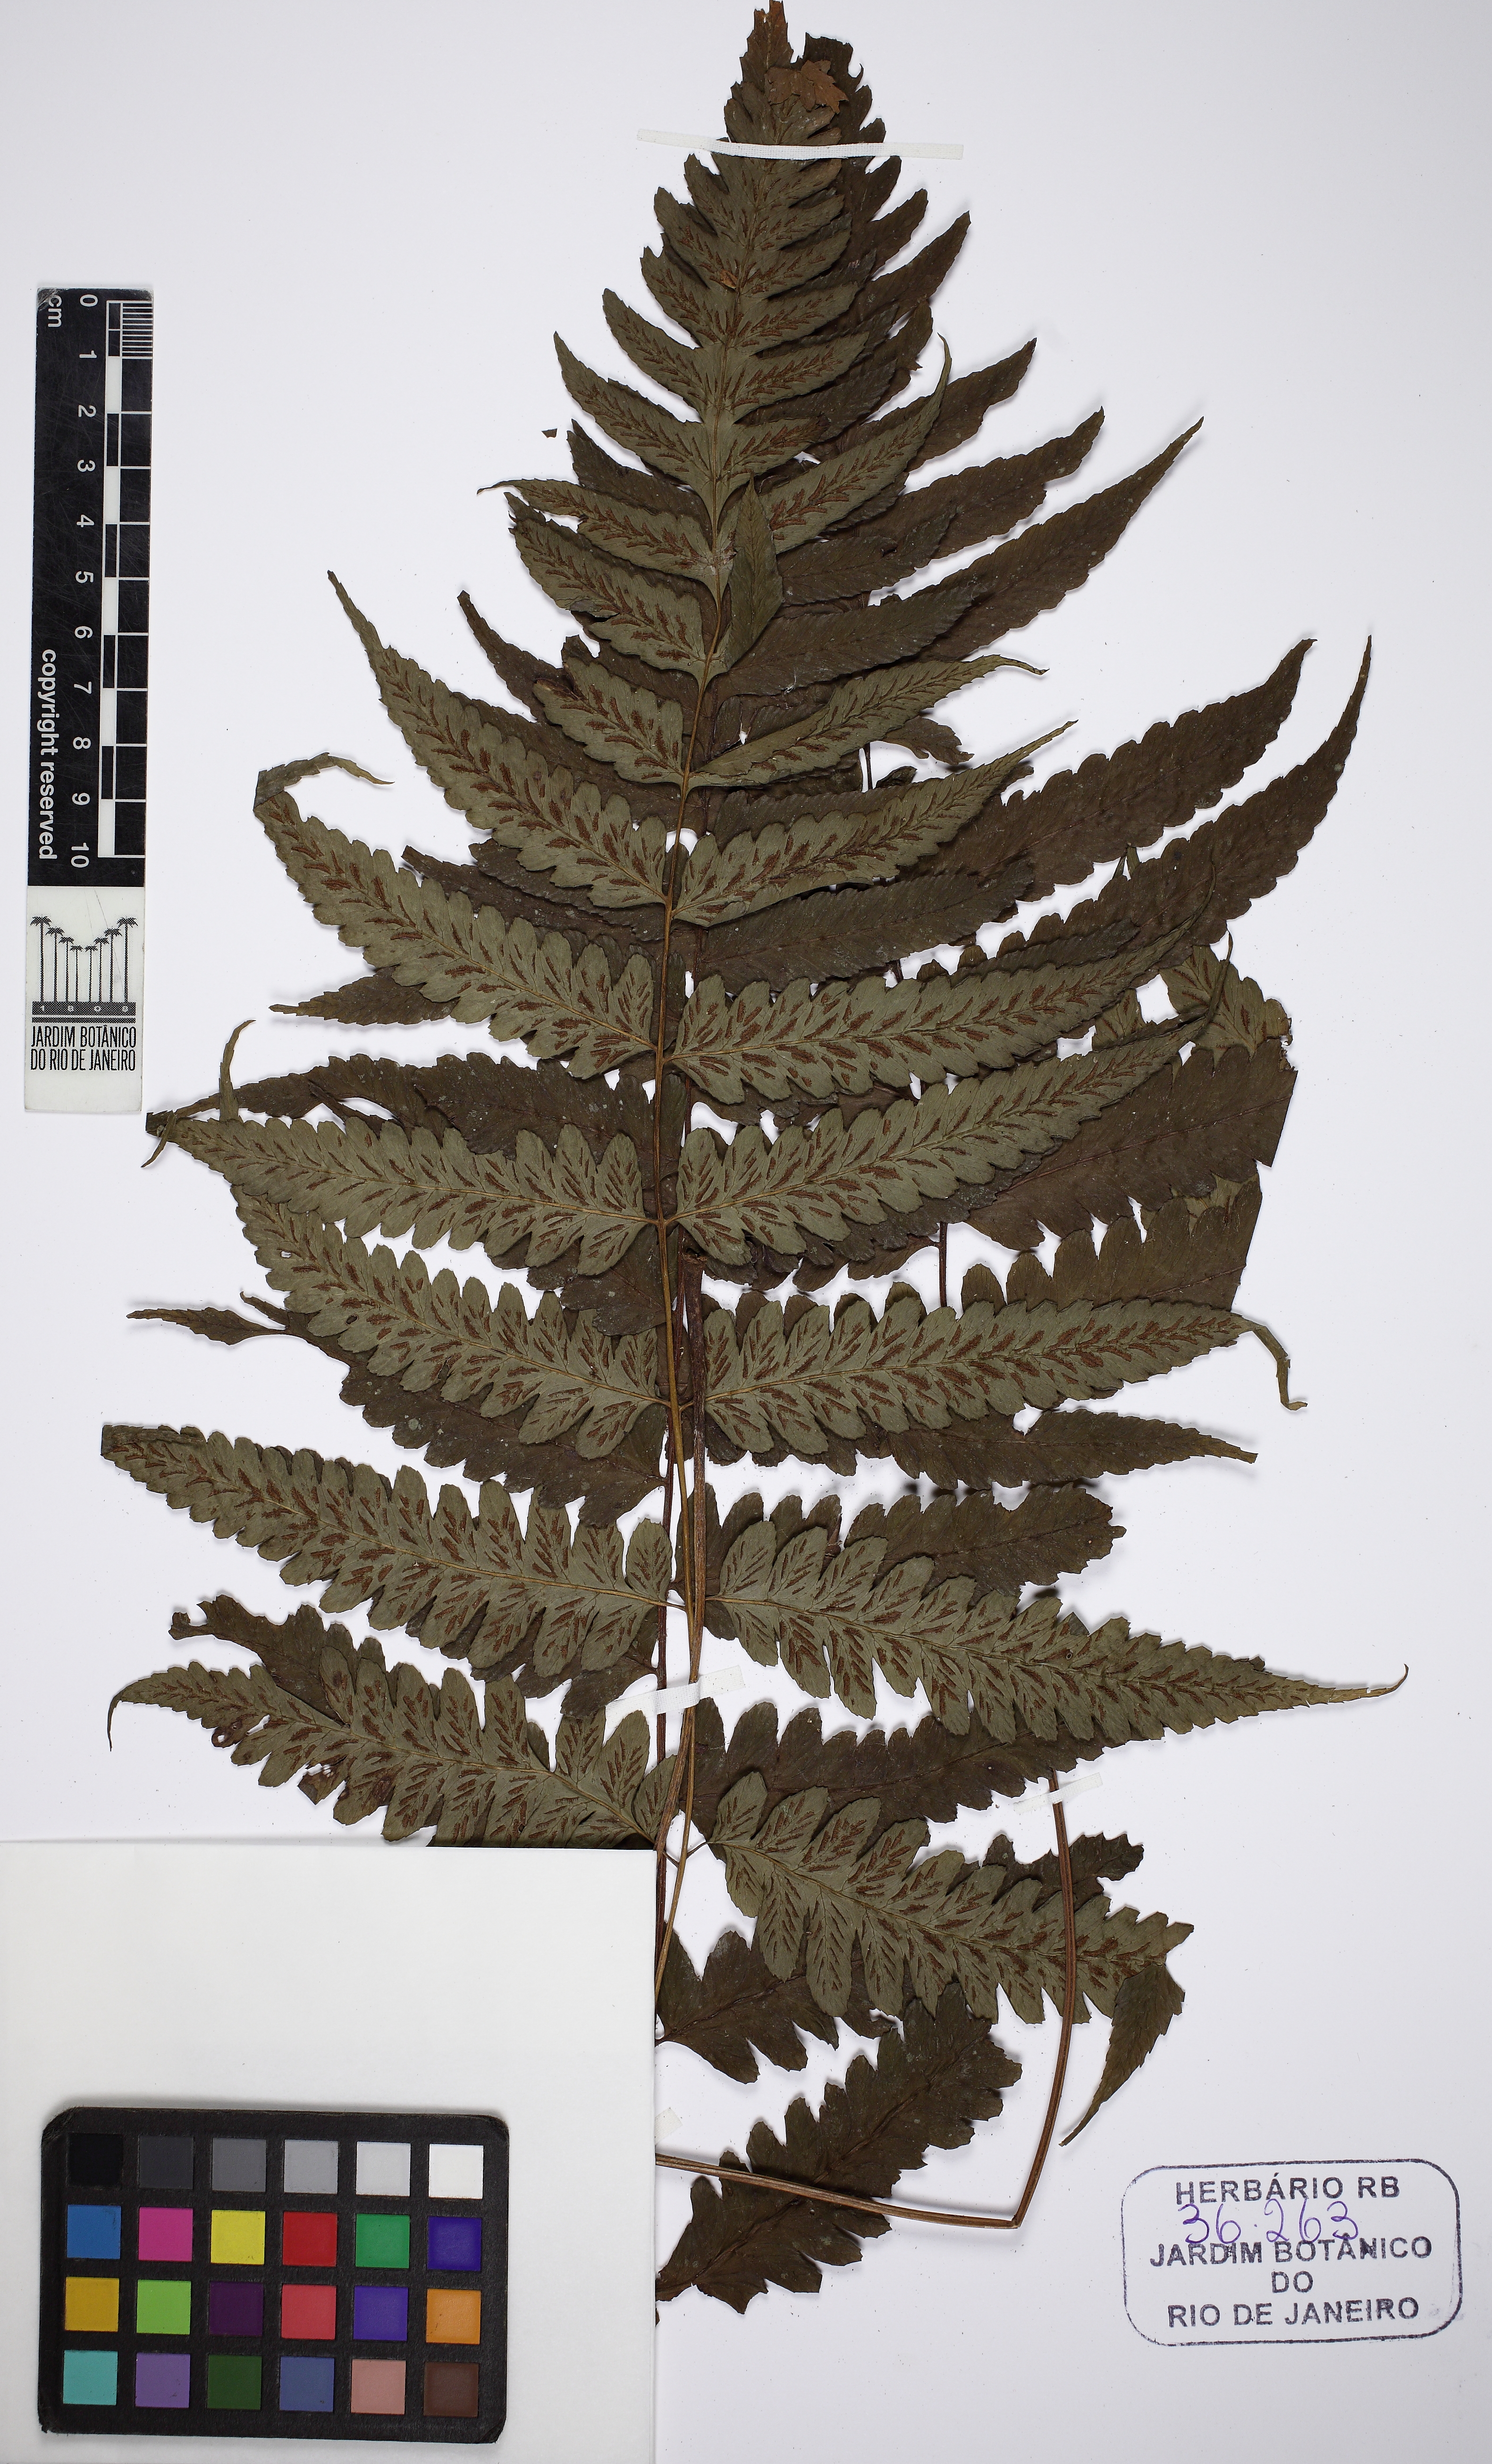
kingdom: Plantae
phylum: Tracheophyta
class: Polypodiopsida
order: Polypodiales
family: Athyriaceae
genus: Diplazium
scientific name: Diplazium cristatum
